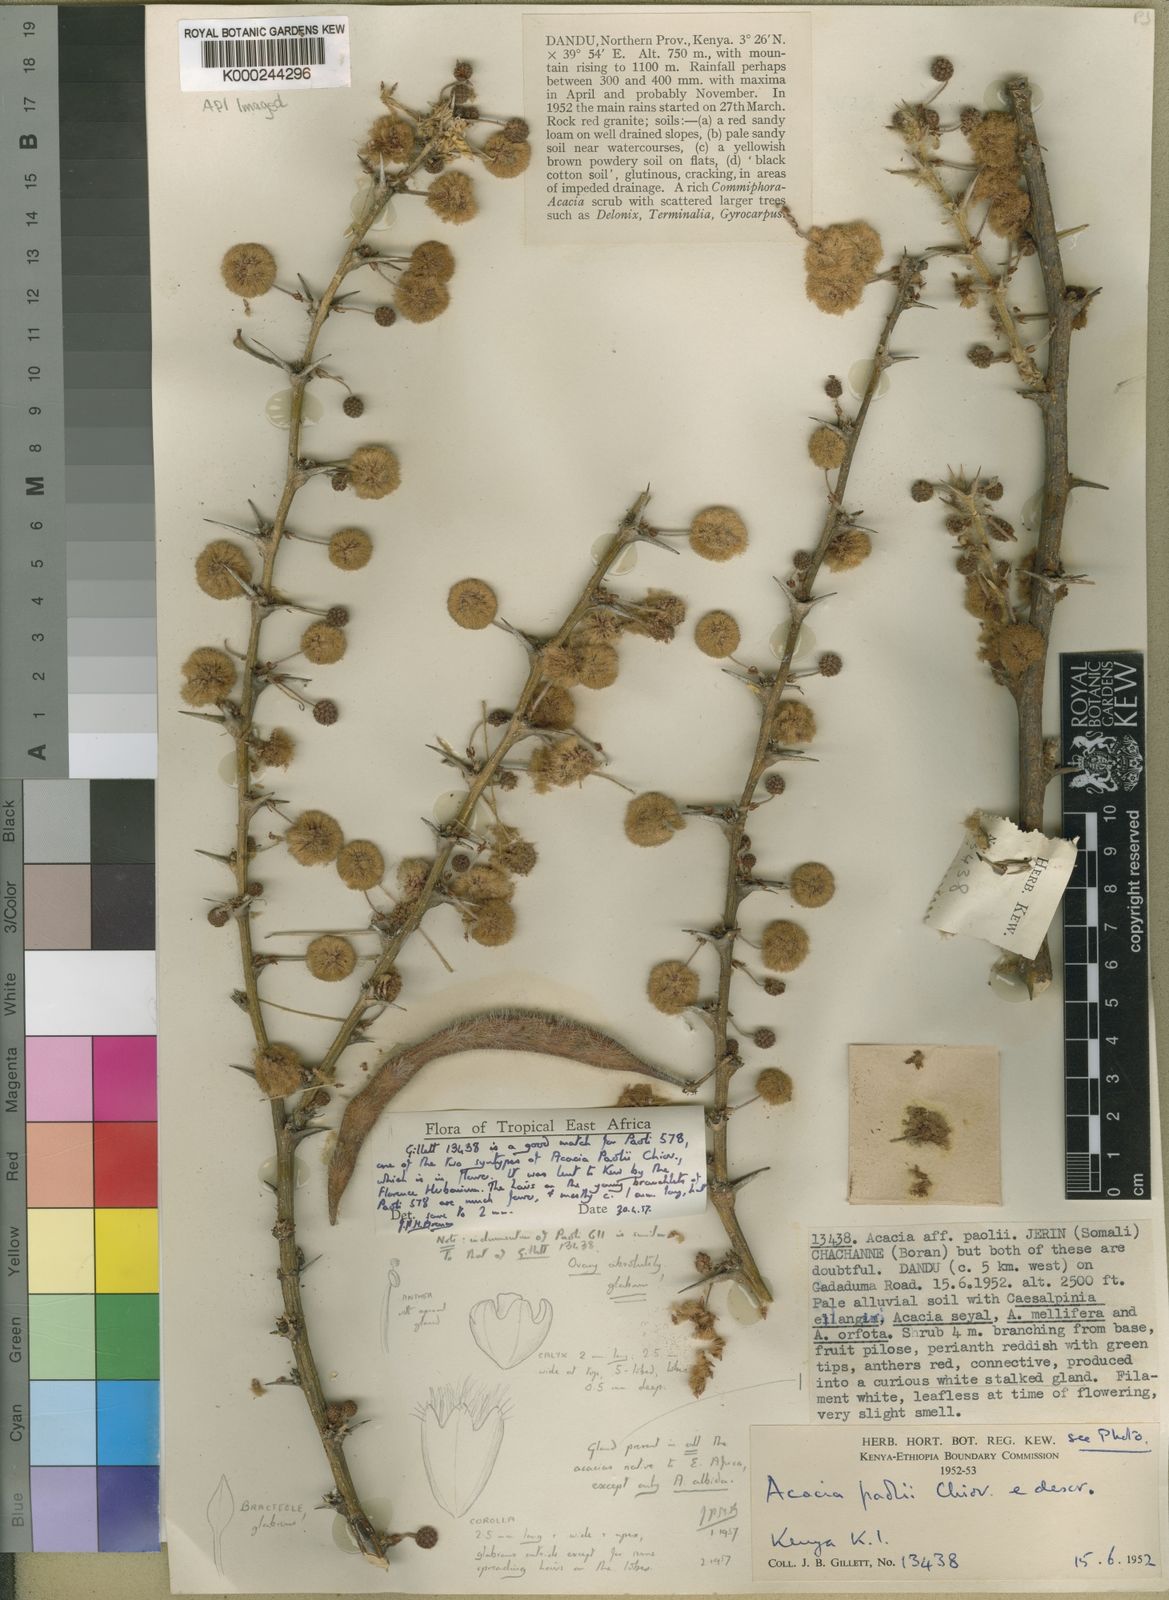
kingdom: Plantae
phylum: Tracheophyta
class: Magnoliopsida
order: Fabales
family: Fabaceae
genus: Vachellia
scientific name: Vachellia paolii
